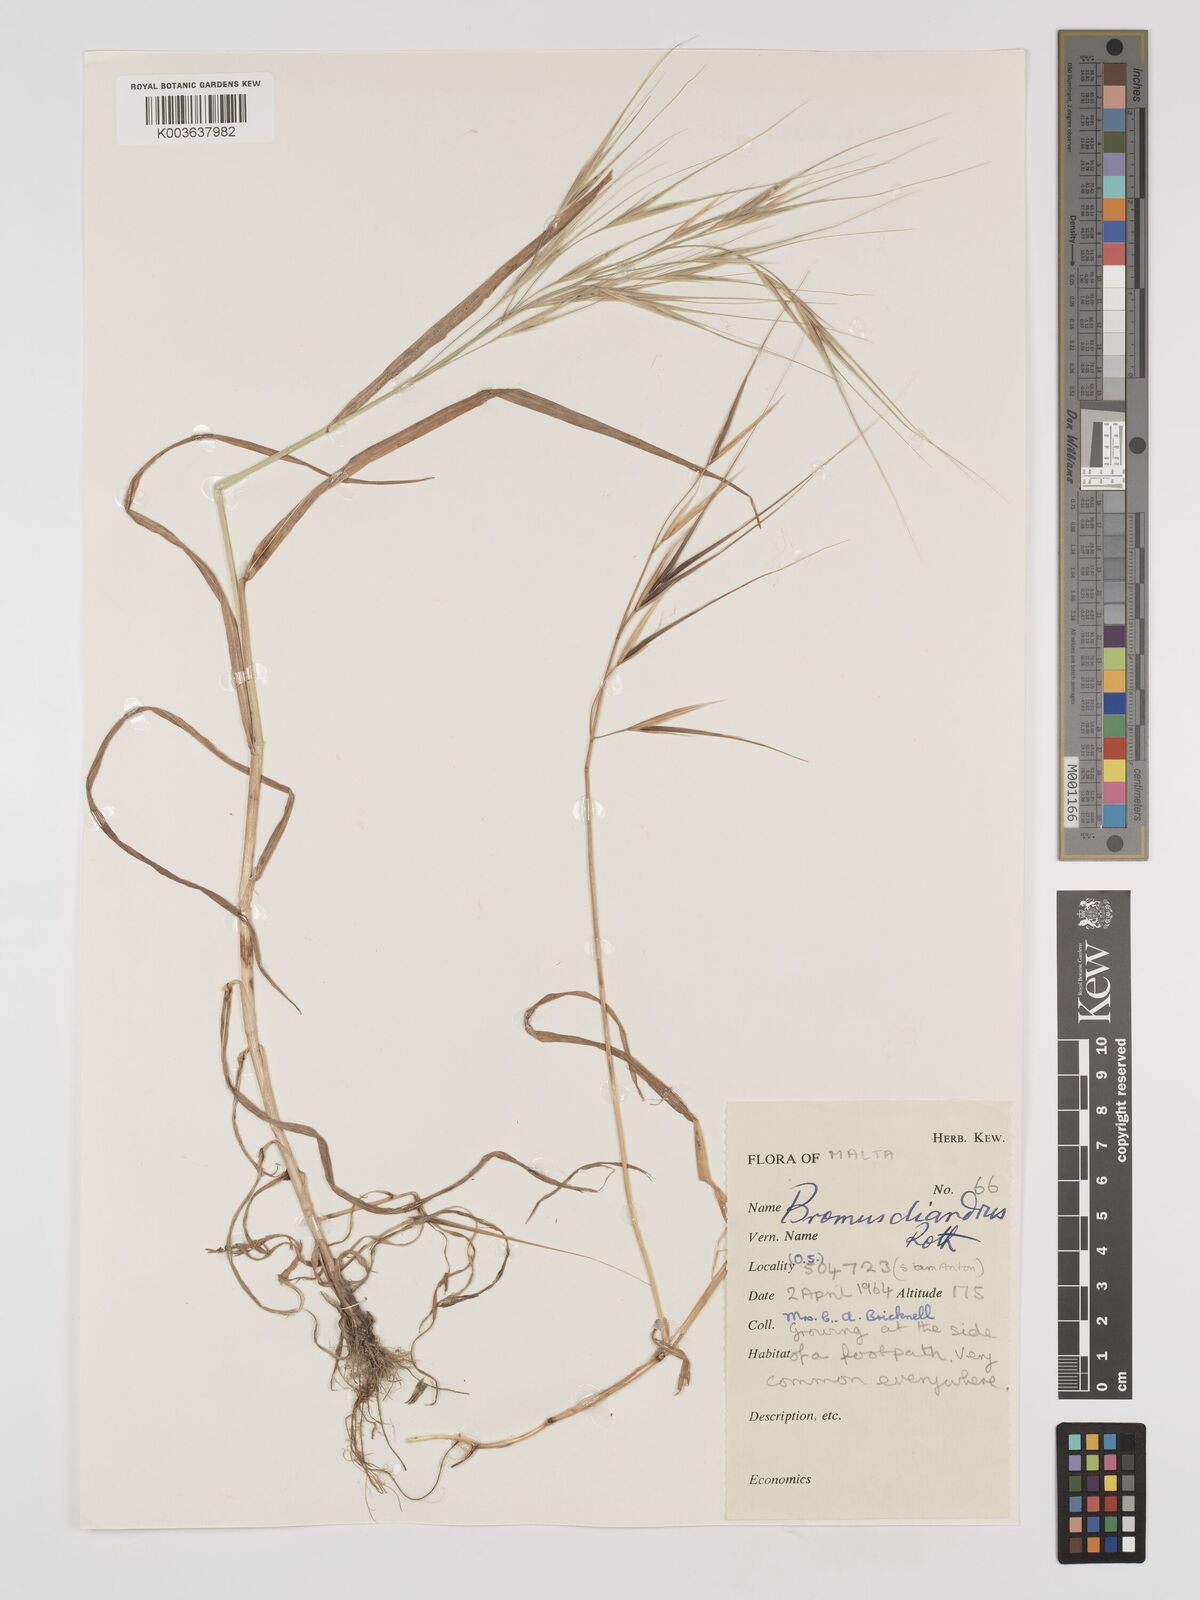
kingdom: Plantae
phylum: Tracheophyta
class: Liliopsida
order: Poales
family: Poaceae
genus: Bromus
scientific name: Bromus
